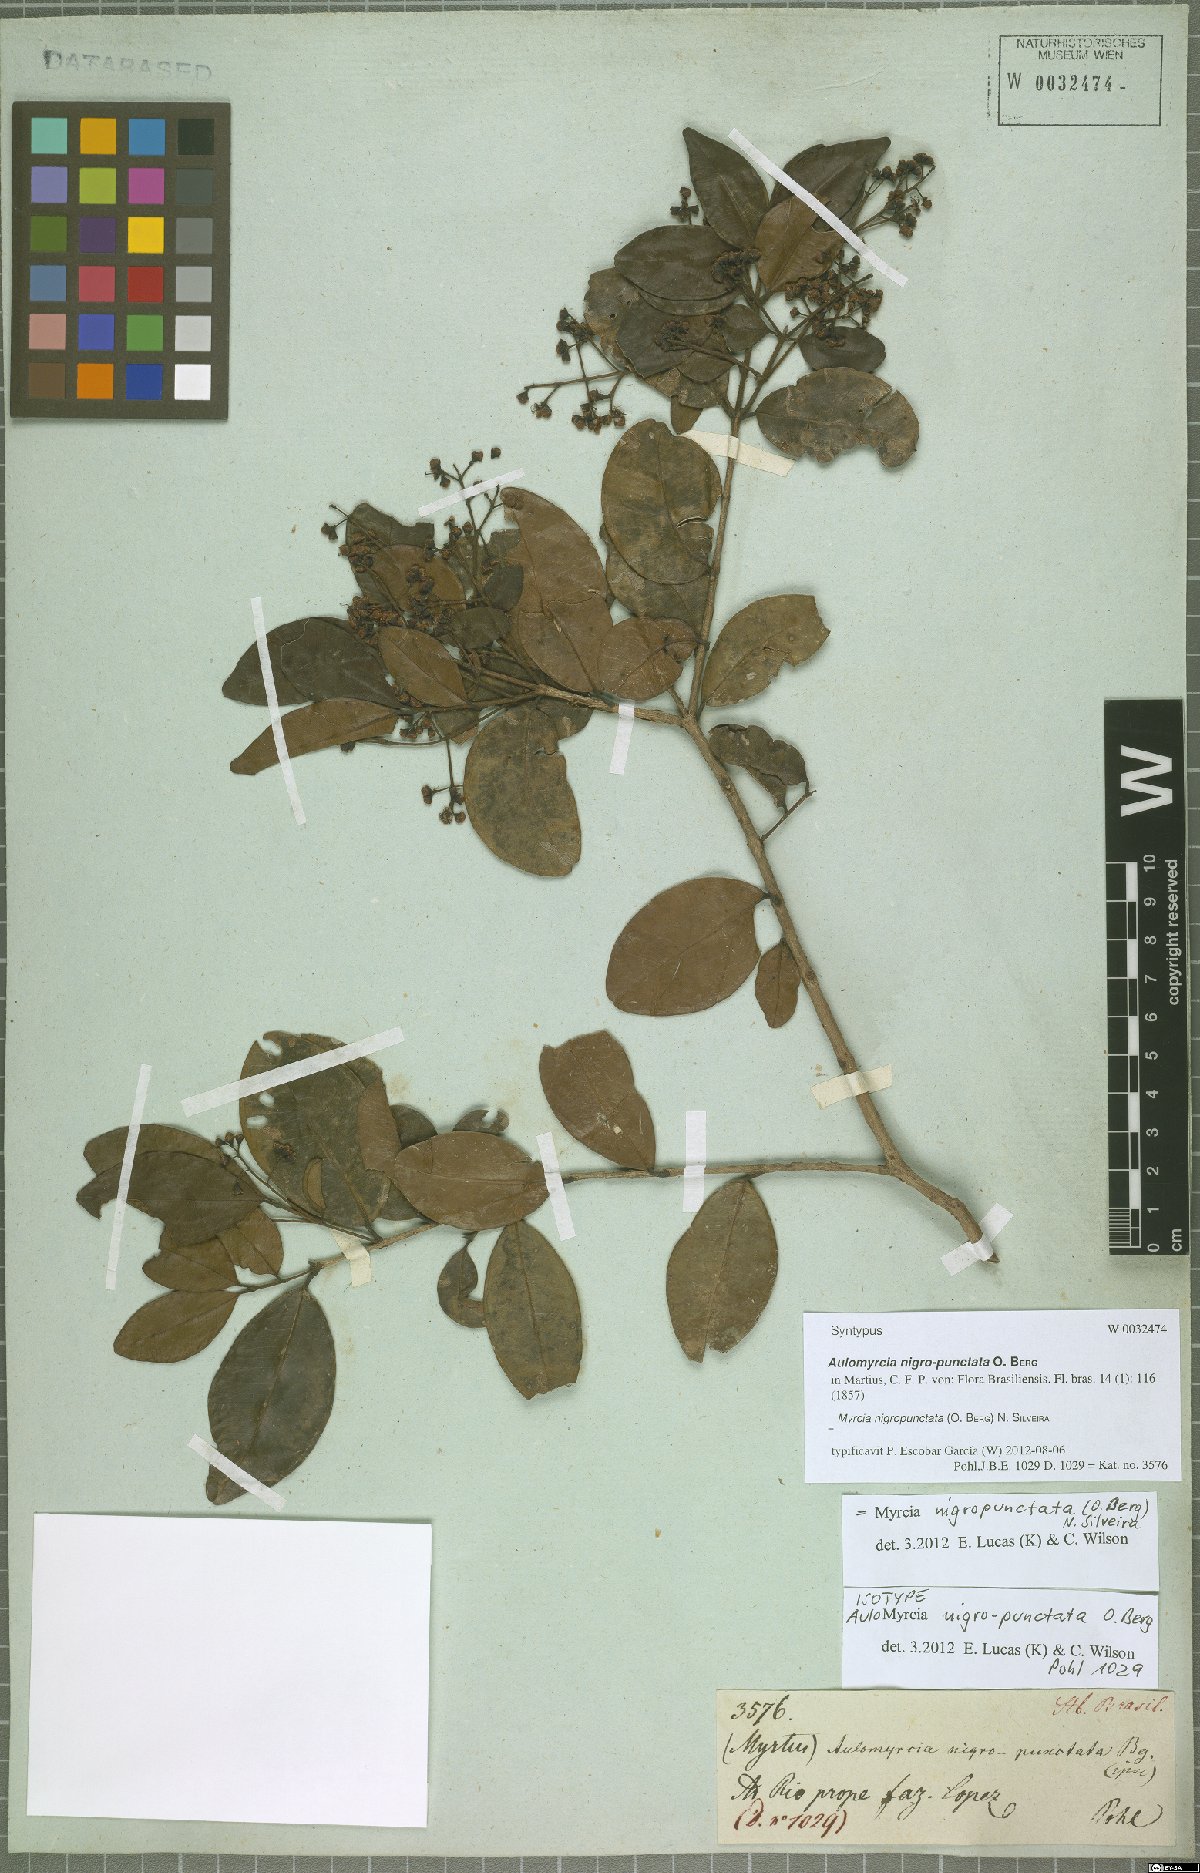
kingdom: Plantae
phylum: Tracheophyta
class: Magnoliopsida
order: Myrtales
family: Myrtaceae
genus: Myrcia
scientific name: Myrcia nigropunctata
